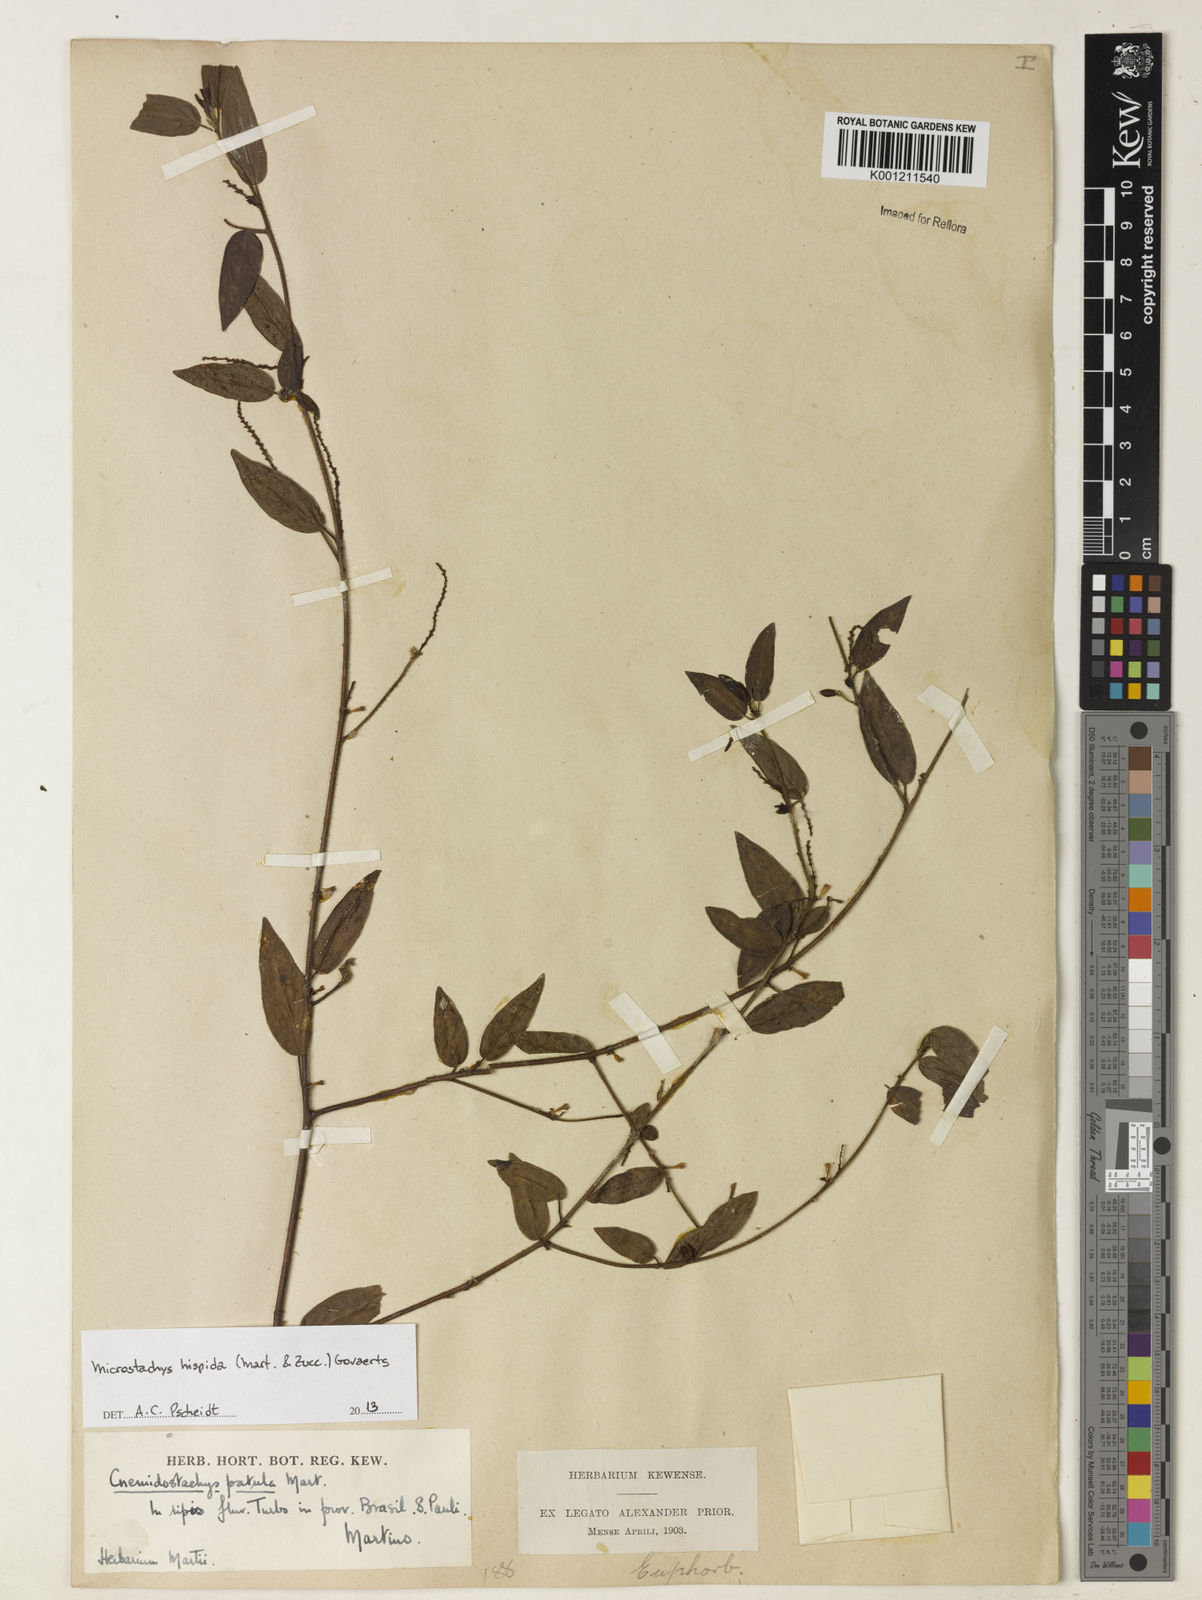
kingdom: Plantae
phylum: Tracheophyta
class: Magnoliopsida
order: Malpighiales
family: Euphorbiaceae
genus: Microstachys
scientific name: Microstachys hispida
